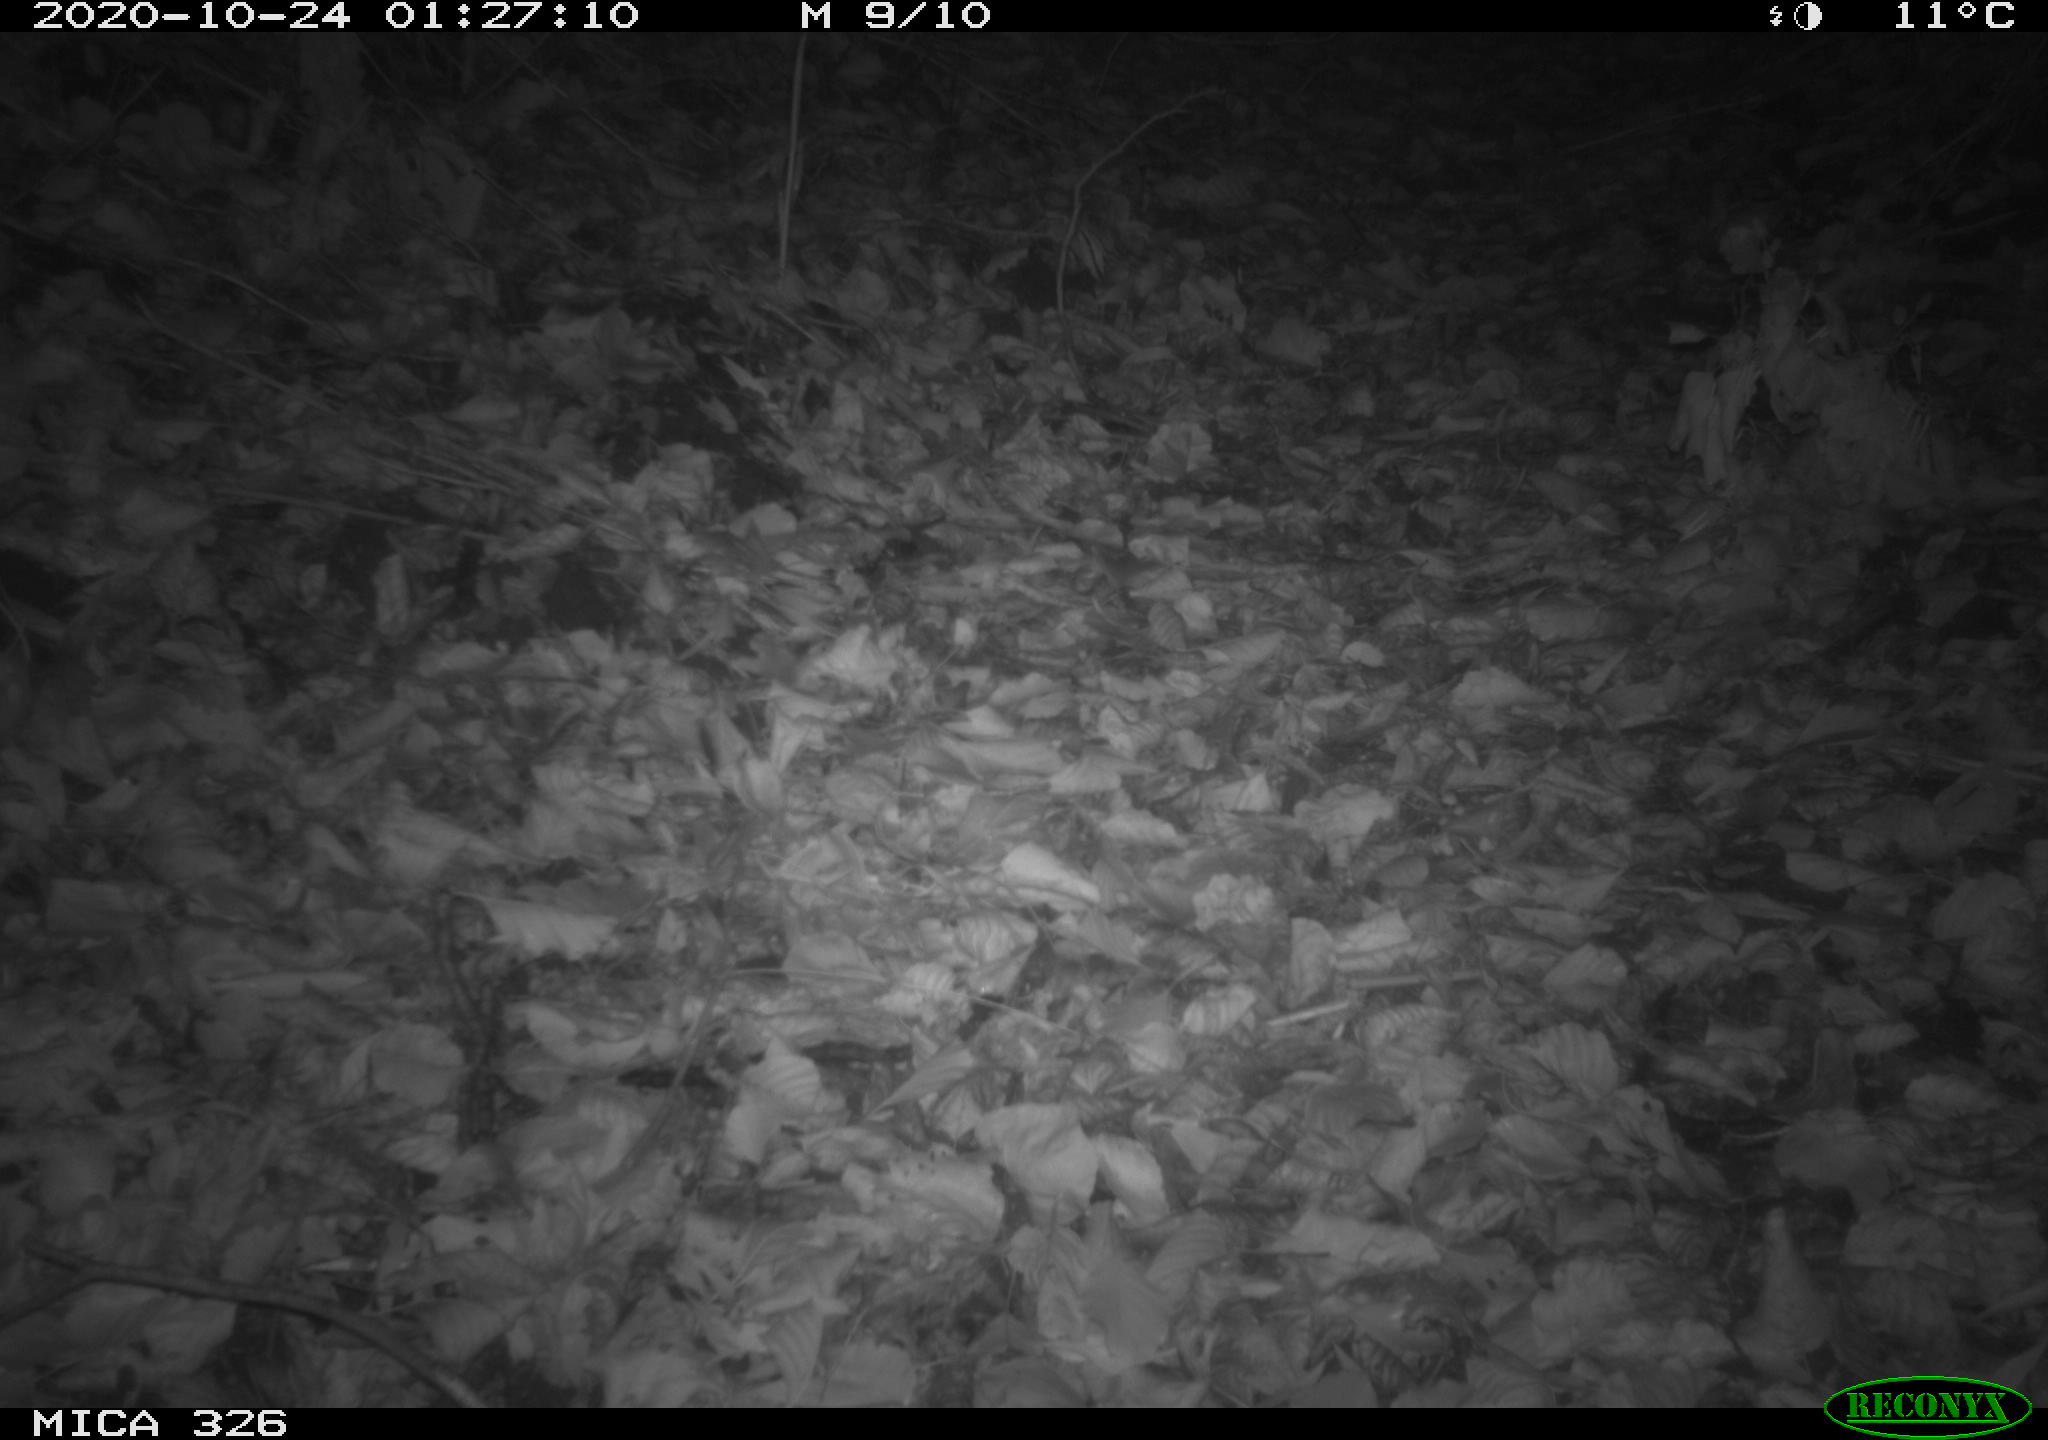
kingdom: Animalia
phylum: Chordata
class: Mammalia
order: Carnivora
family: Mustelidae
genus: Lutra
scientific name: Lutra lutra
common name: European otter
